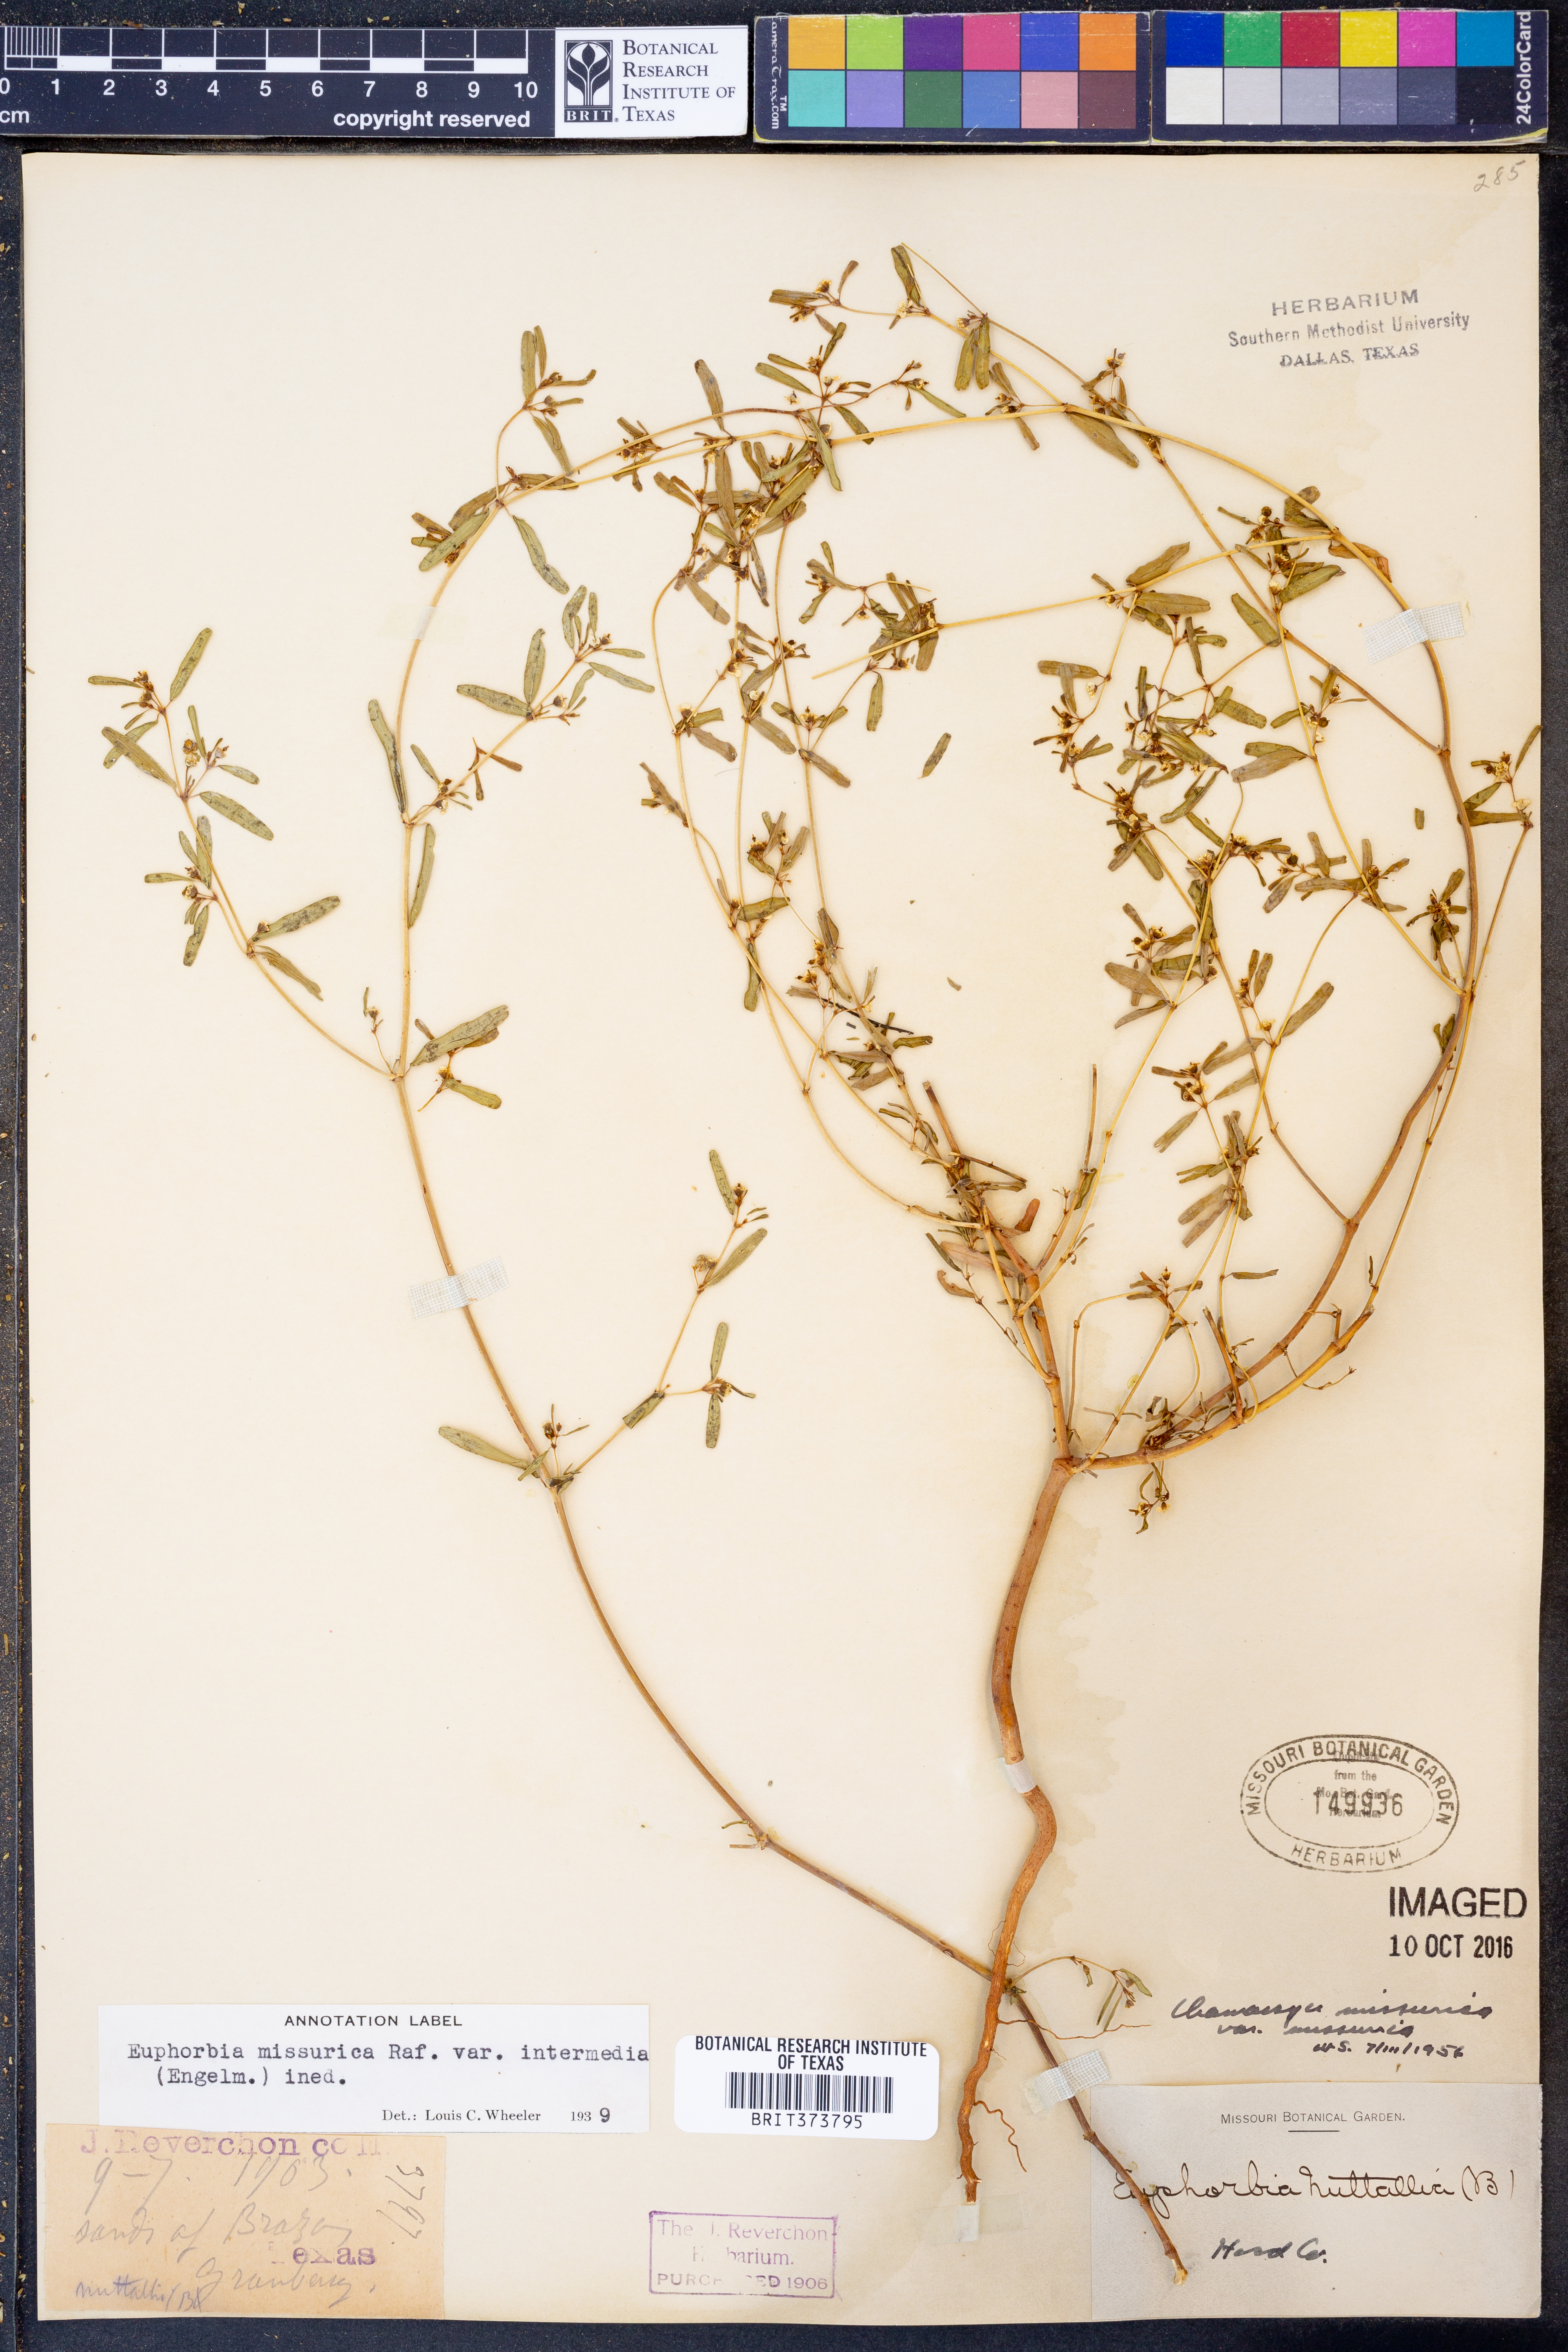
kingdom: Plantae
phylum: Tracheophyta
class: Magnoliopsida
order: Malpighiales
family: Euphorbiaceae
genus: Euphorbia
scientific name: Euphorbia missurica
